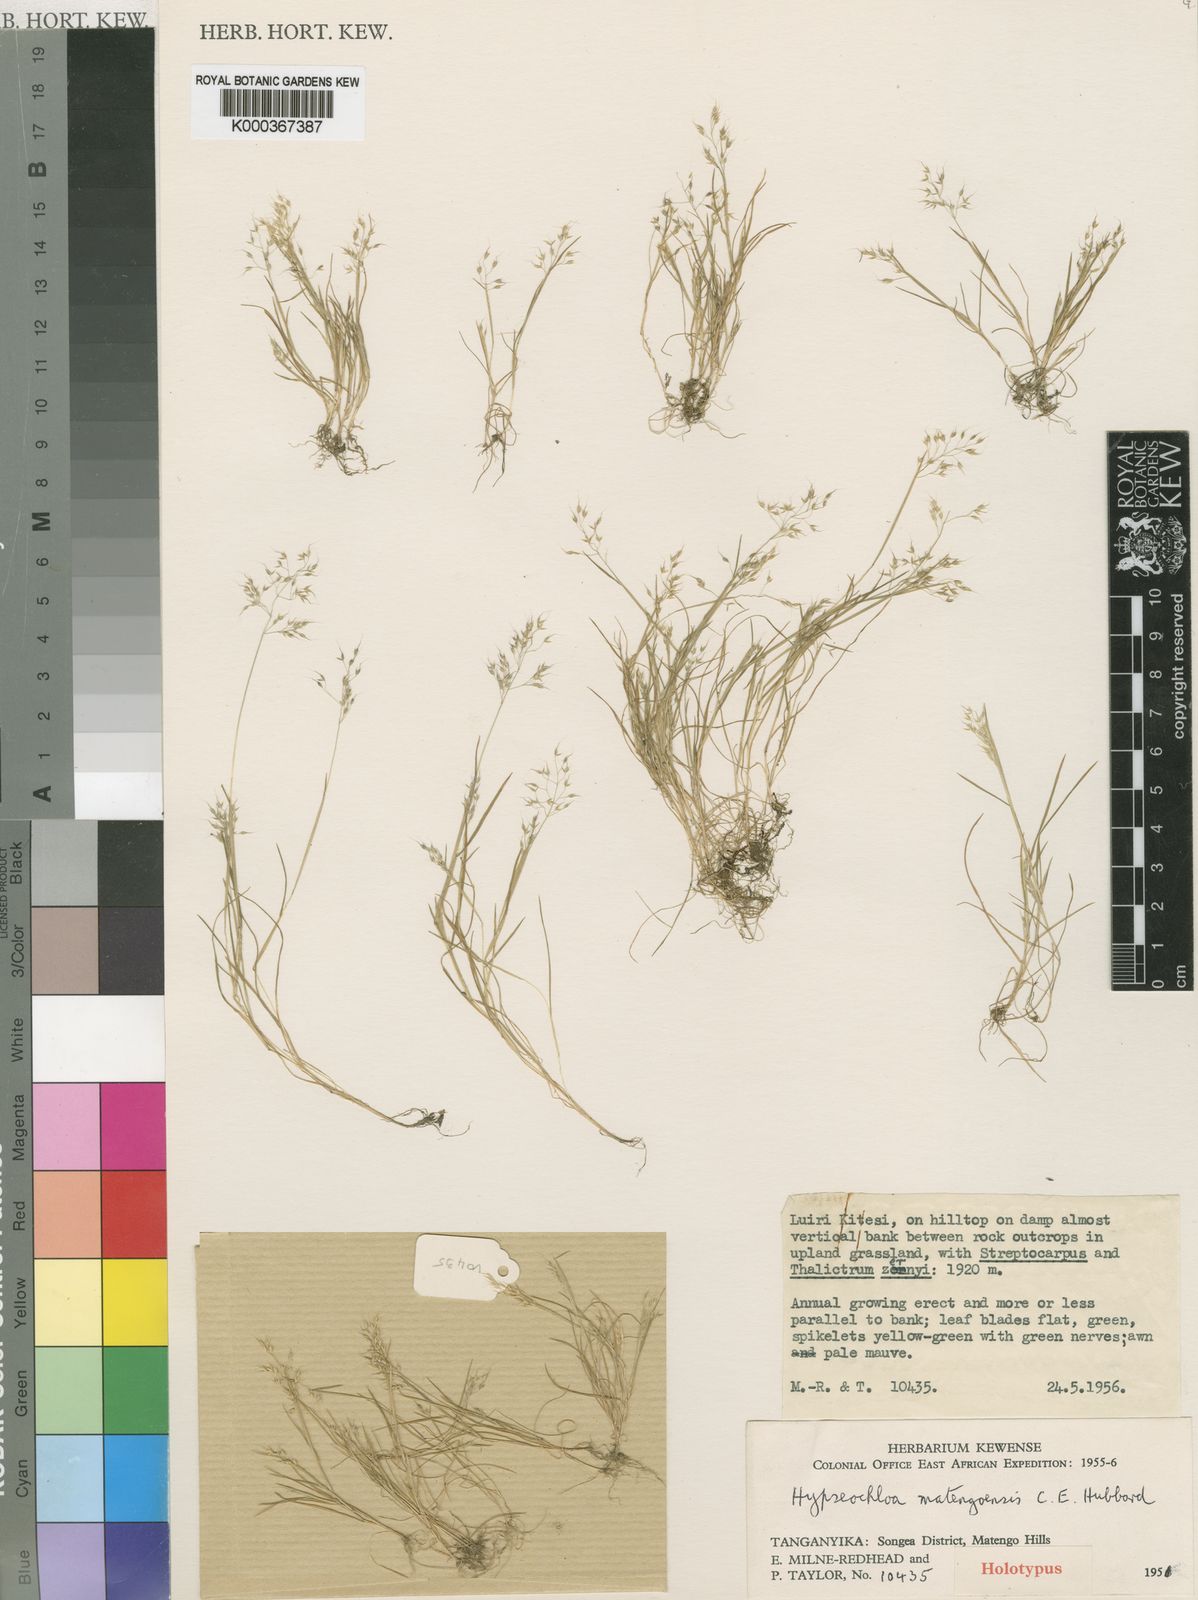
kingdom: Plantae
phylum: Tracheophyta
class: Liliopsida
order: Poales
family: Poaceae
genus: Hypseochloa
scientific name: Hypseochloa matengoensis
